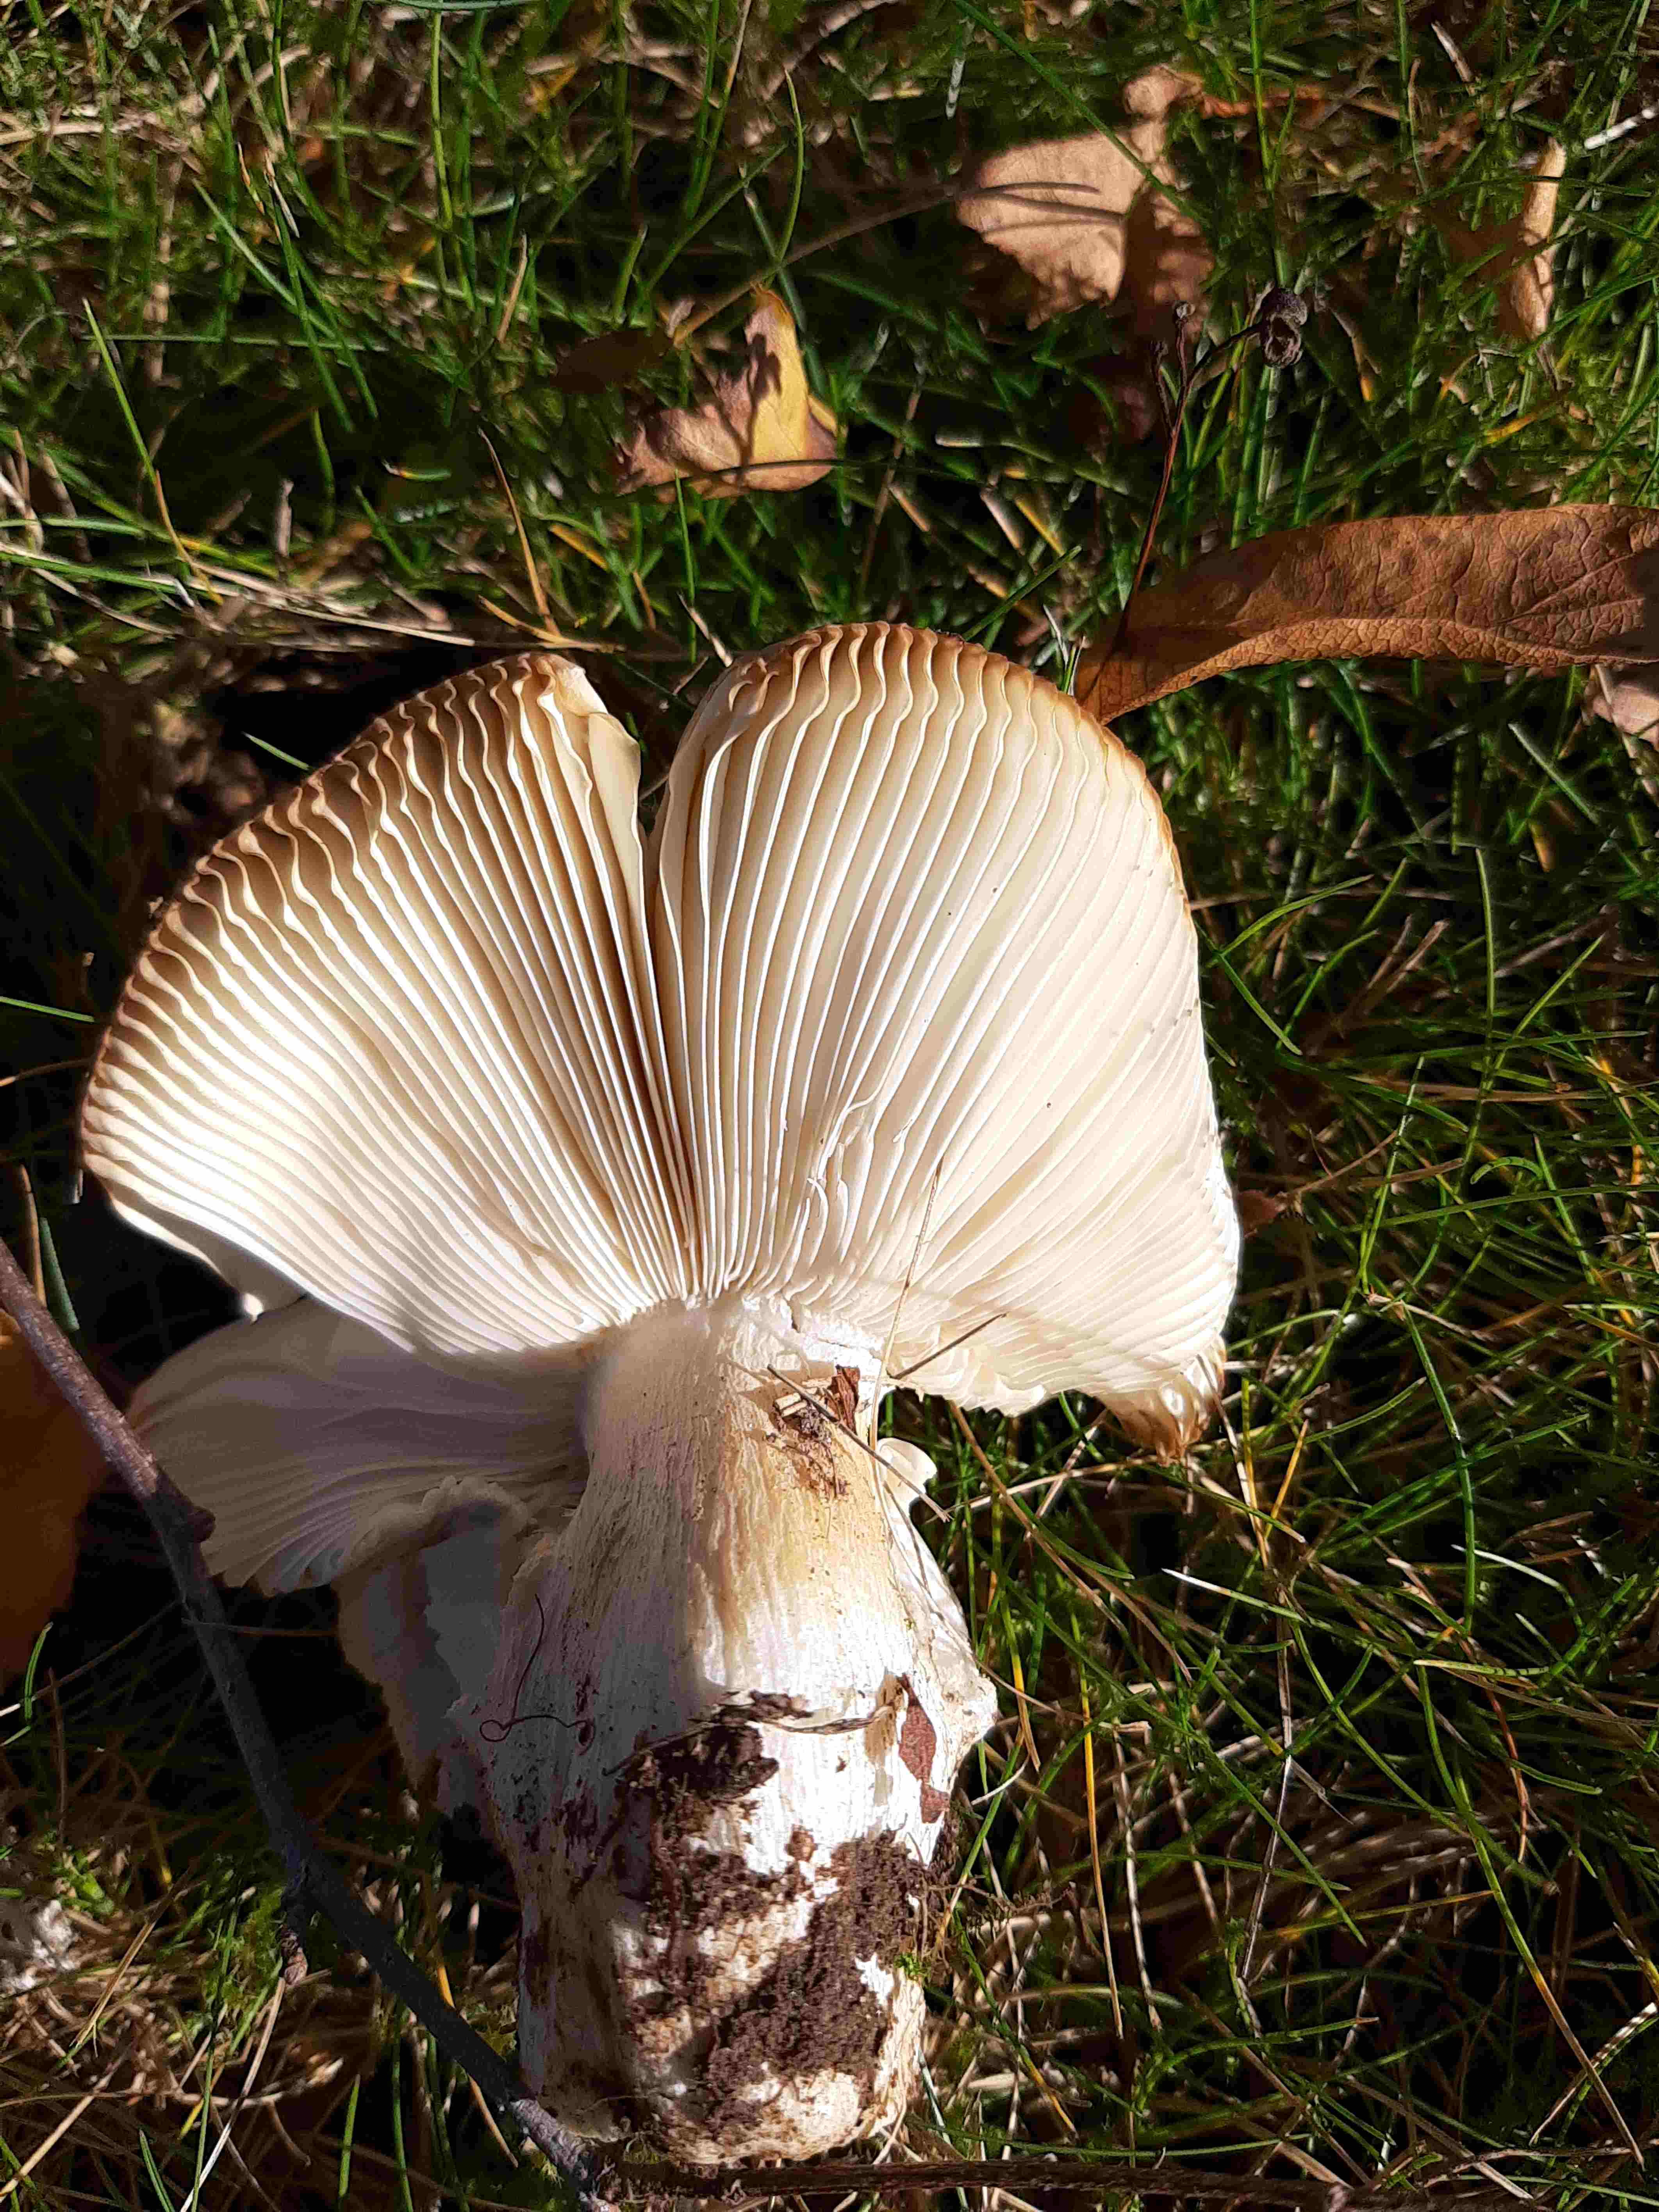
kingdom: Fungi
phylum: Basidiomycota
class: Agaricomycetes
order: Russulales
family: Russulaceae
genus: Russula
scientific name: Russula
